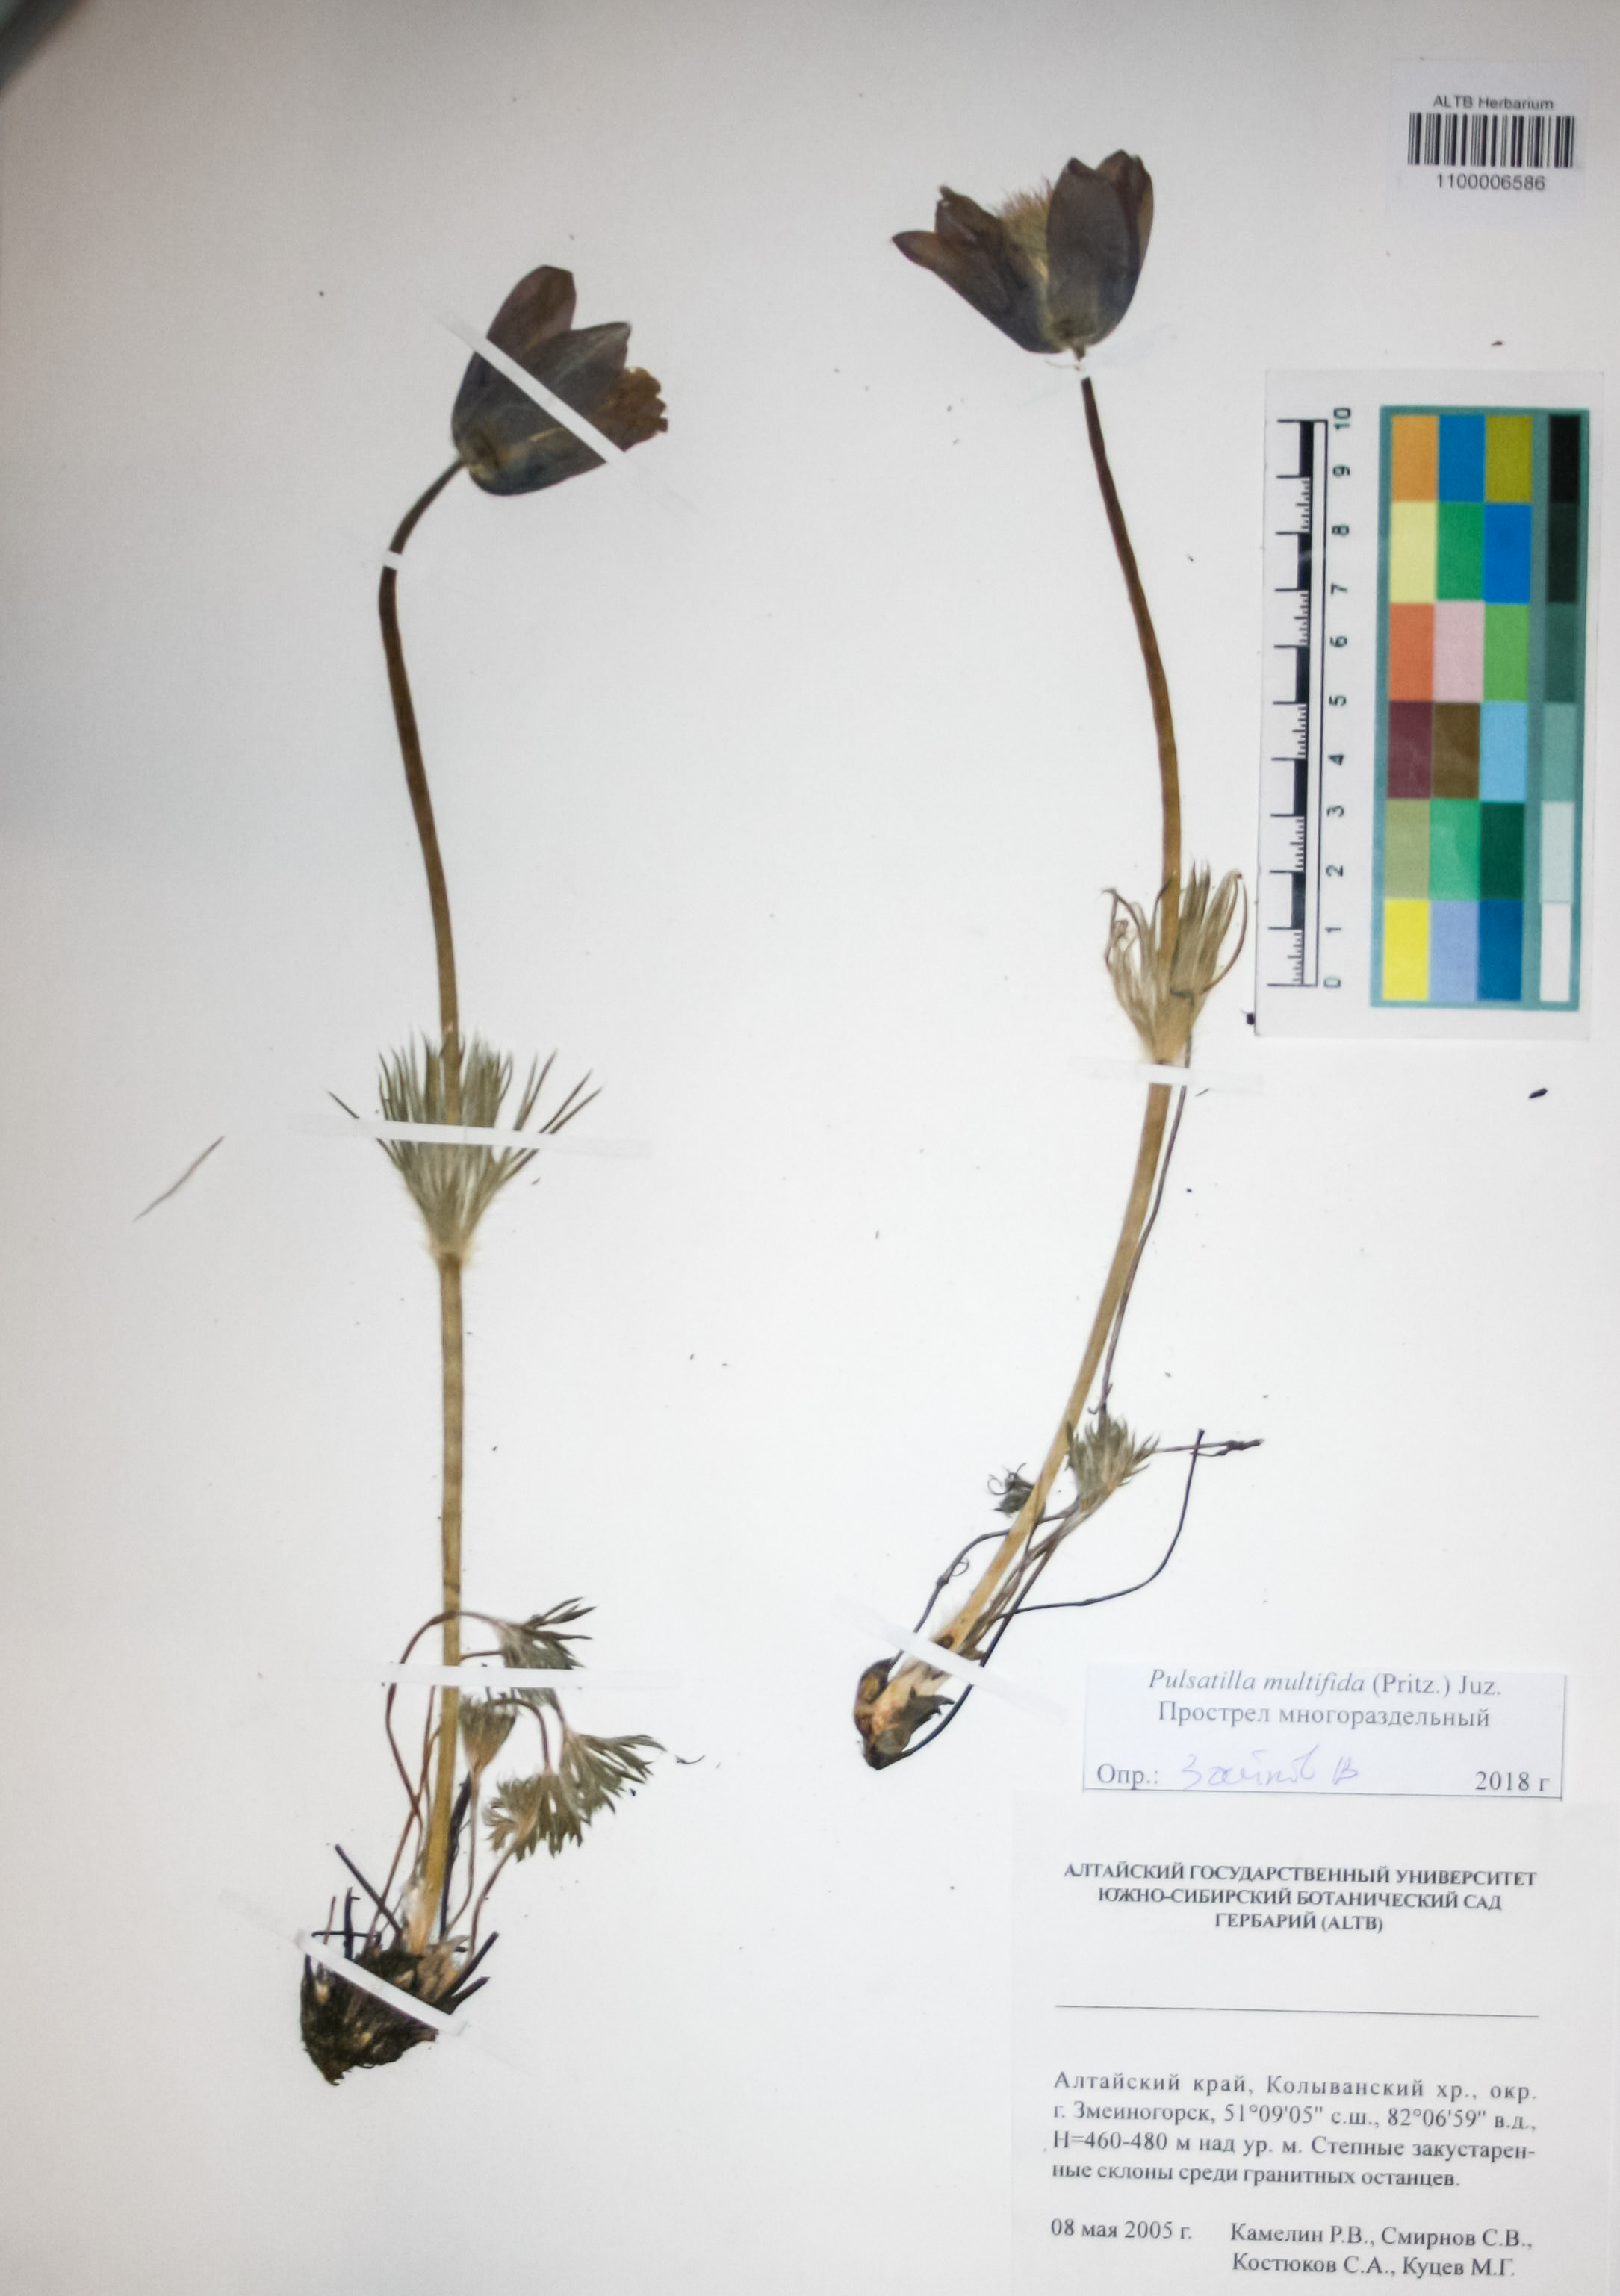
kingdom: Plantae
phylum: Tracheophyta
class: Magnoliopsida
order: Ranunculales
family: Ranunculaceae
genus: Pulsatilla
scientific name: Pulsatilla patens
